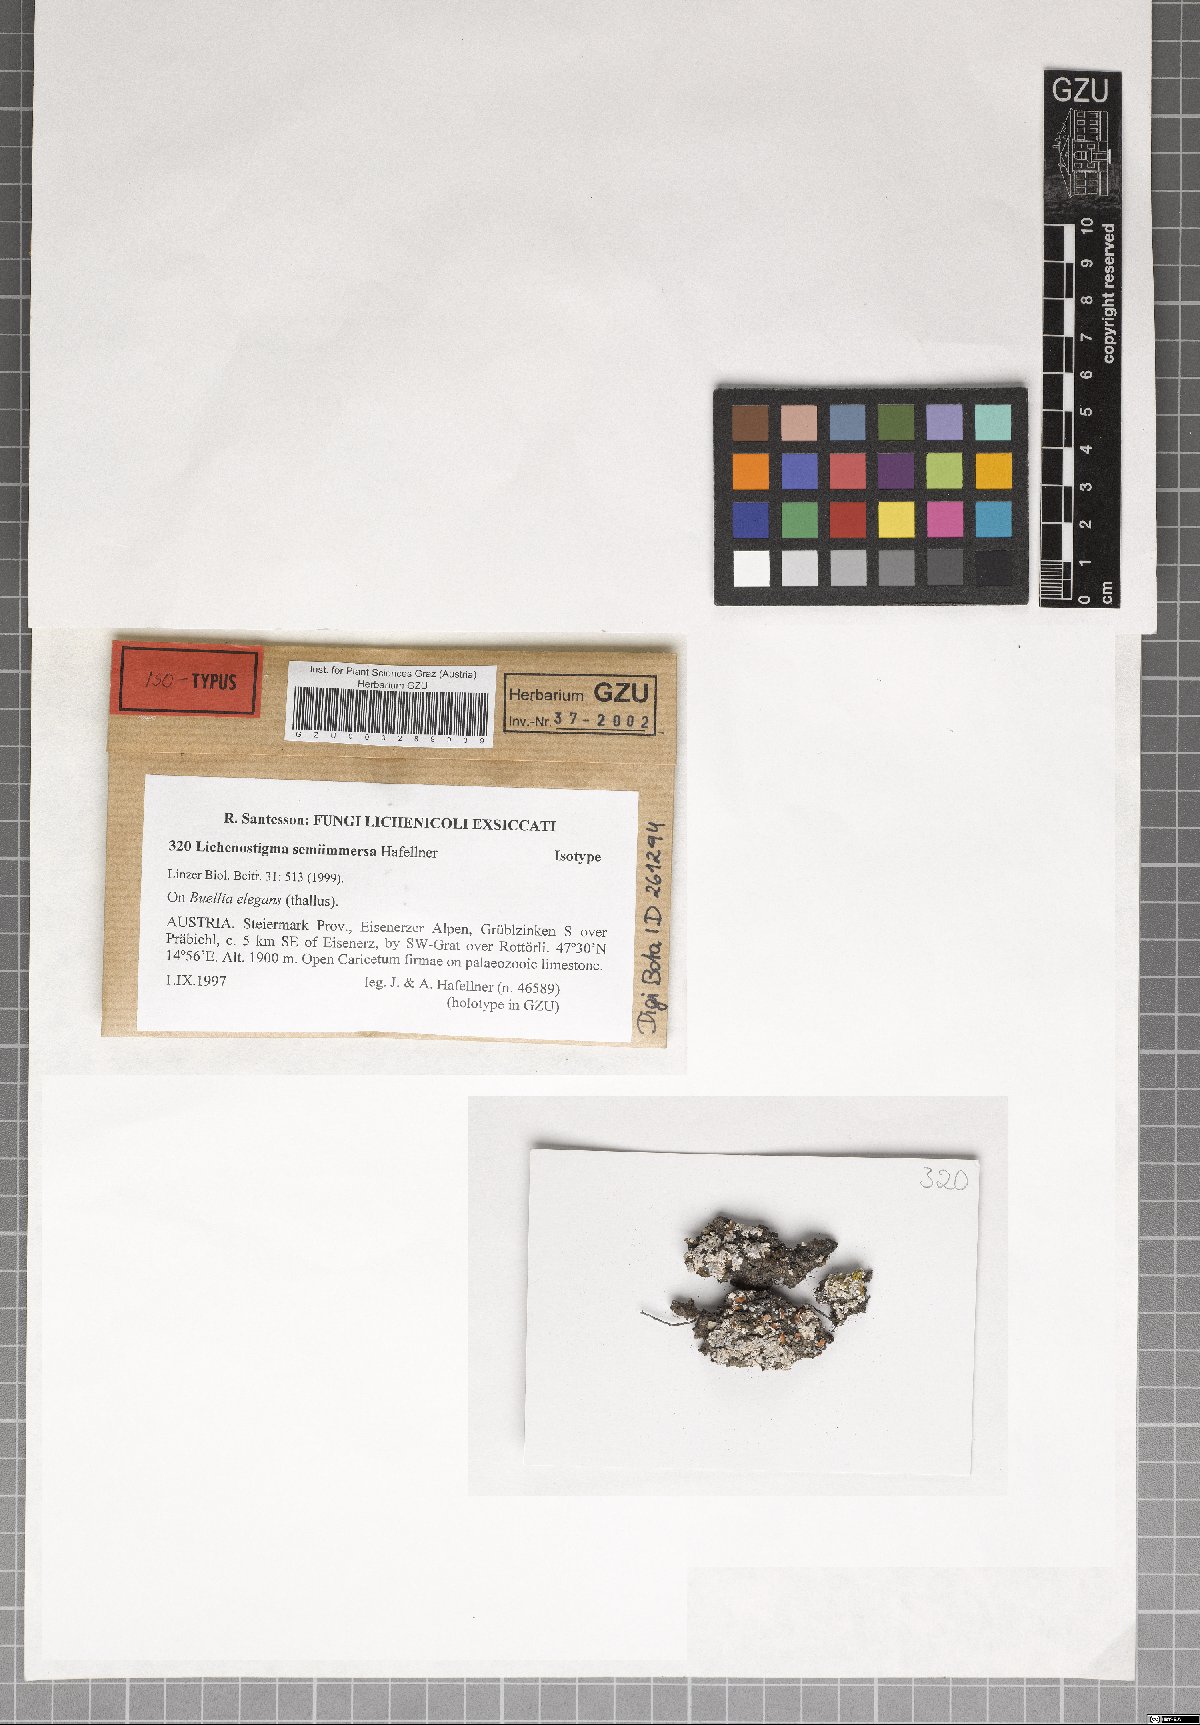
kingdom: Fungi
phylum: Ascomycota
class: Dothideomycetes
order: Lichenotheliales
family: Lichenotheliaceae
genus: Lichenostigma
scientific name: Lichenostigma semi-immersum
